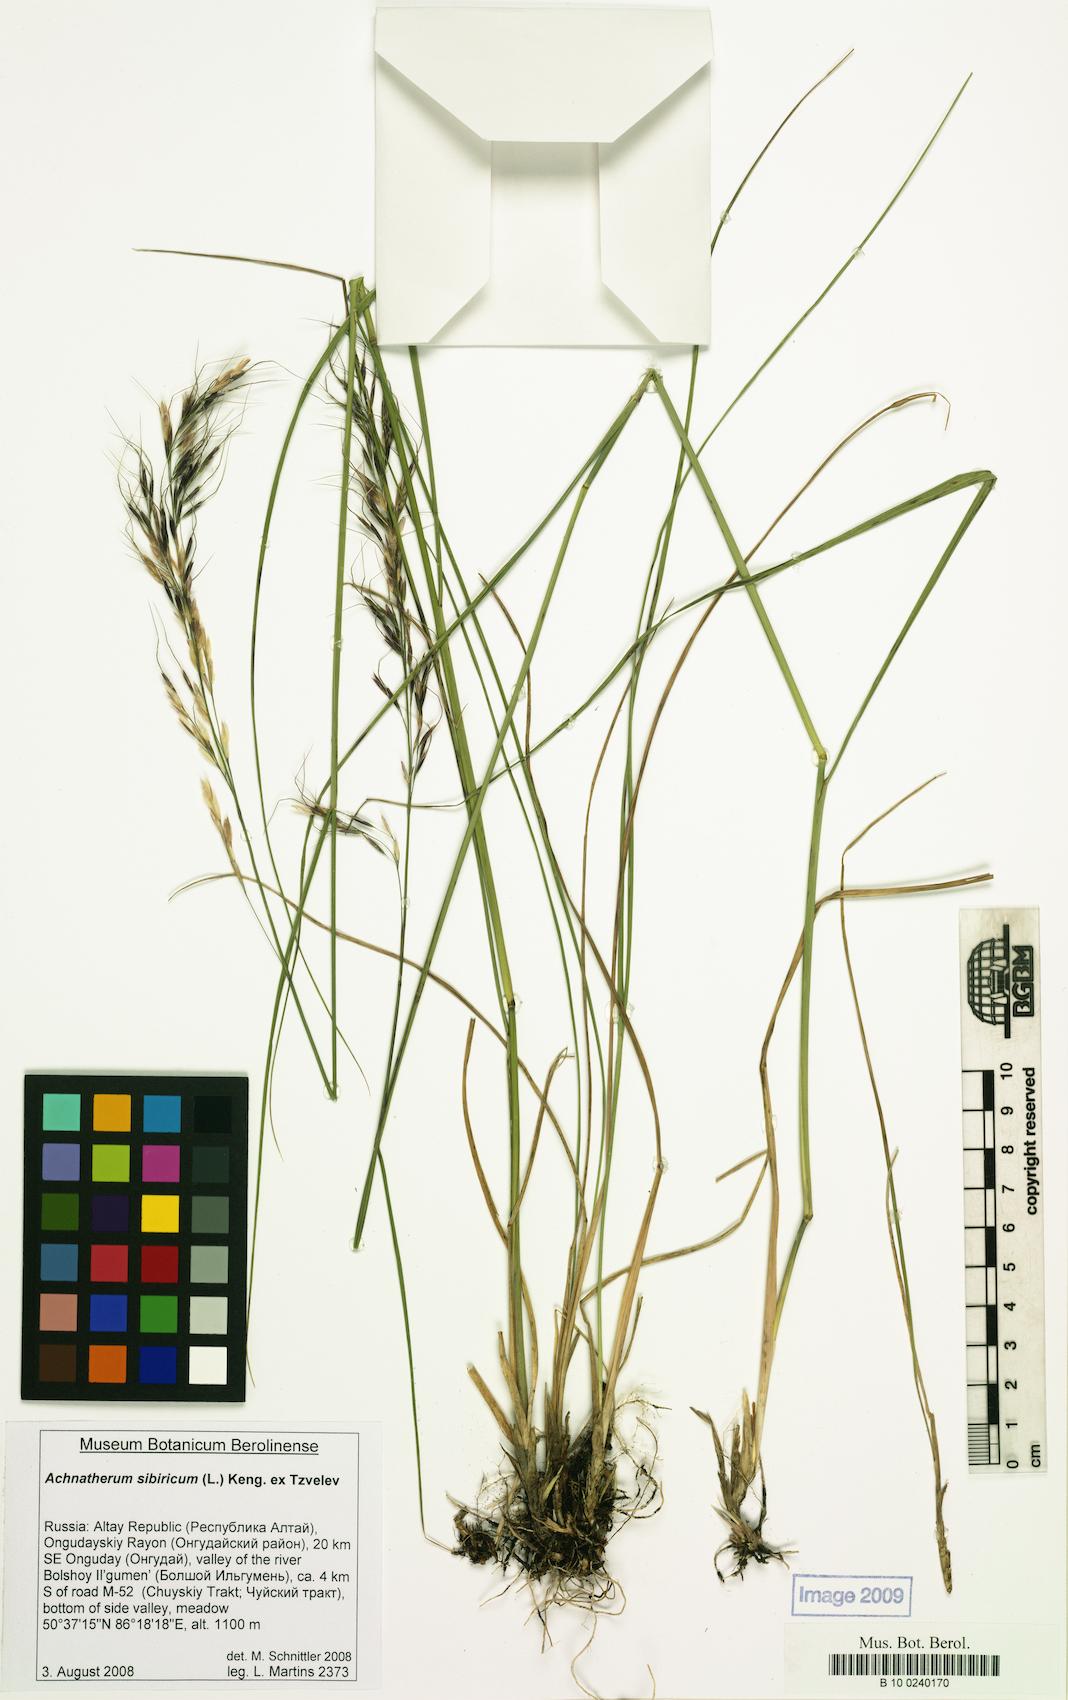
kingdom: Plantae
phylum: Tracheophyta
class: Liliopsida
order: Poales
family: Poaceae
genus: Achnatherum
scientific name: Achnatherum sibiricum
